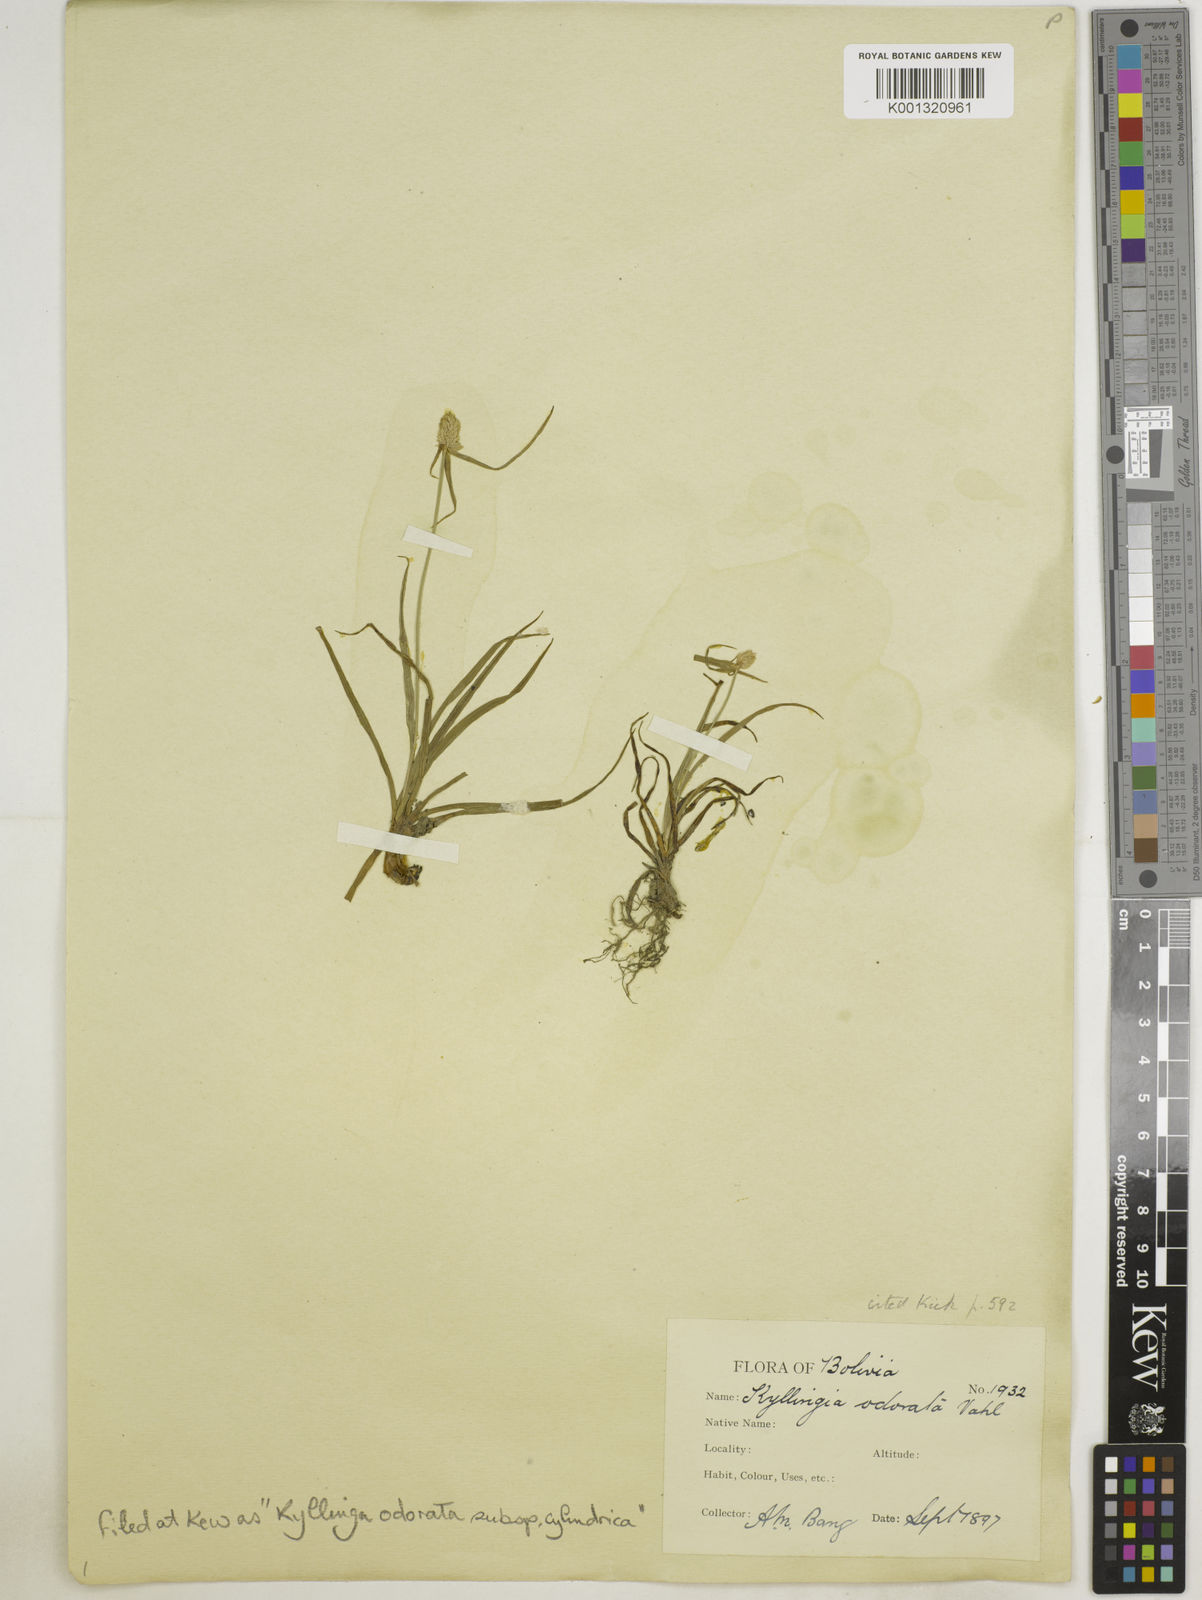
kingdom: Plantae
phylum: Tracheophyta
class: Liliopsida
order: Poales
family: Cyperaceae
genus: Cyperus
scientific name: Cyperus
